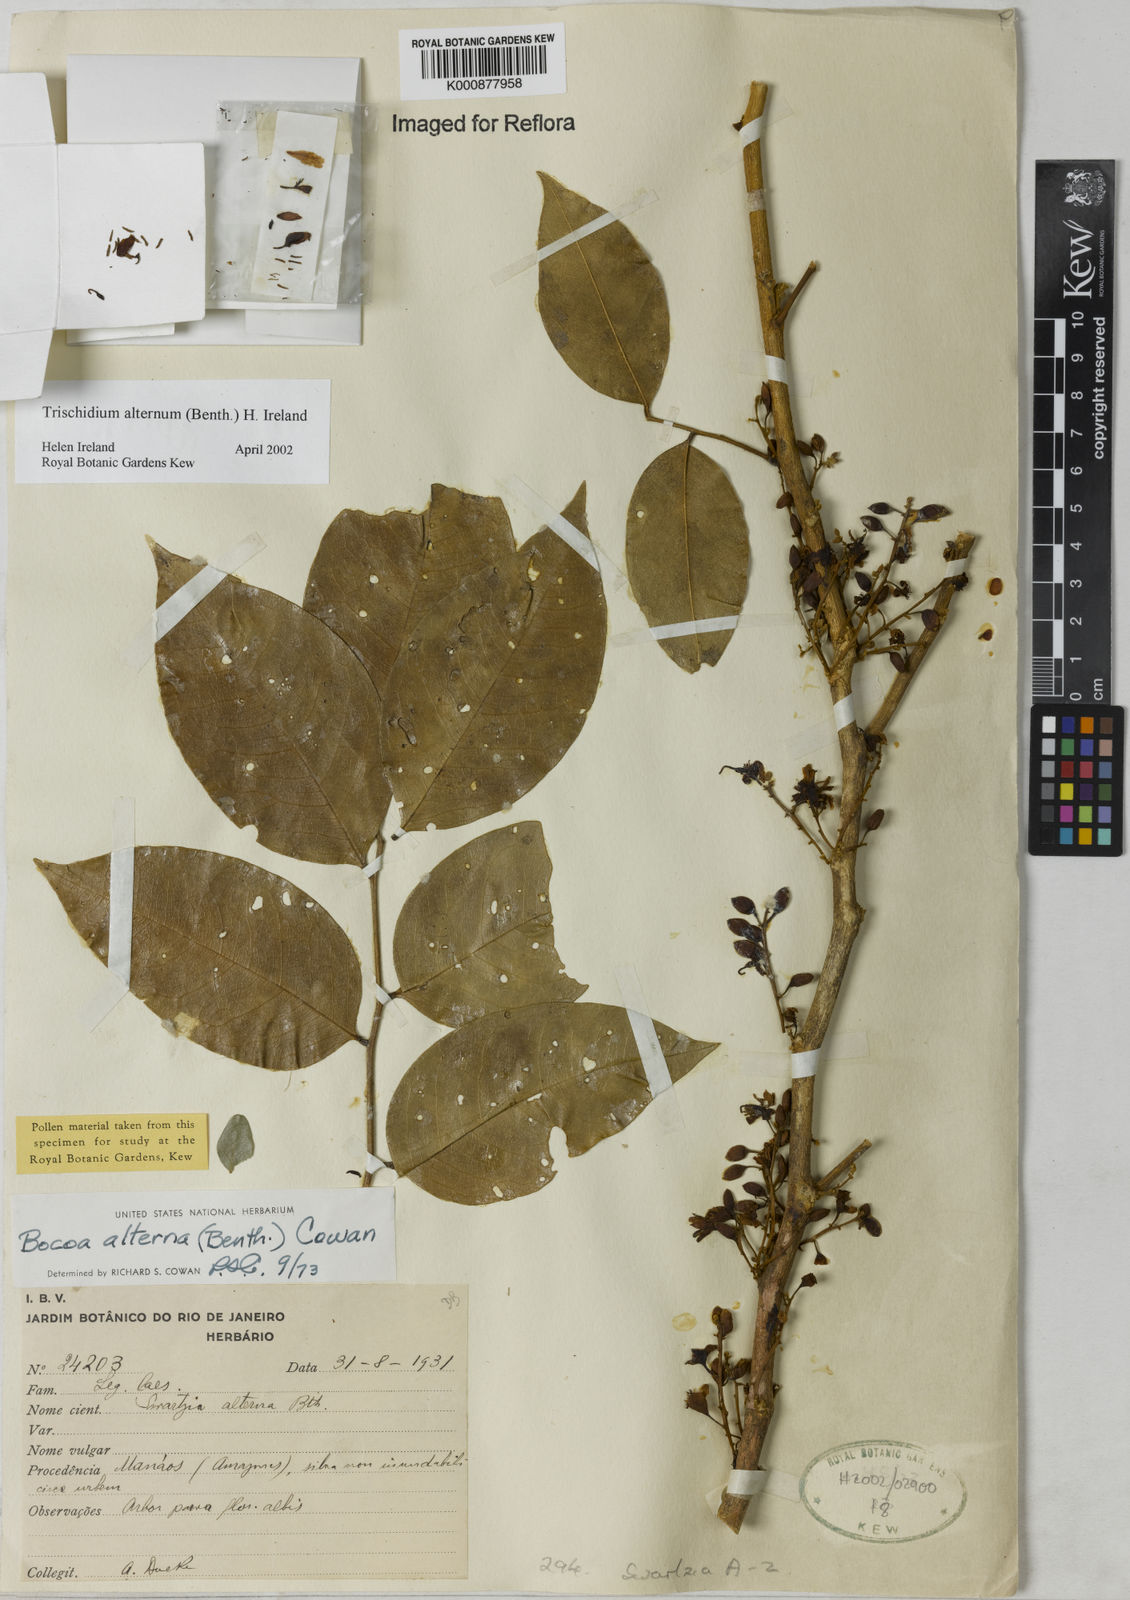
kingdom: Plantae
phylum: Tracheophyta
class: Magnoliopsida
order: Fabales
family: Fabaceae
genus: Trischidium
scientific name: Trischidium alternum
